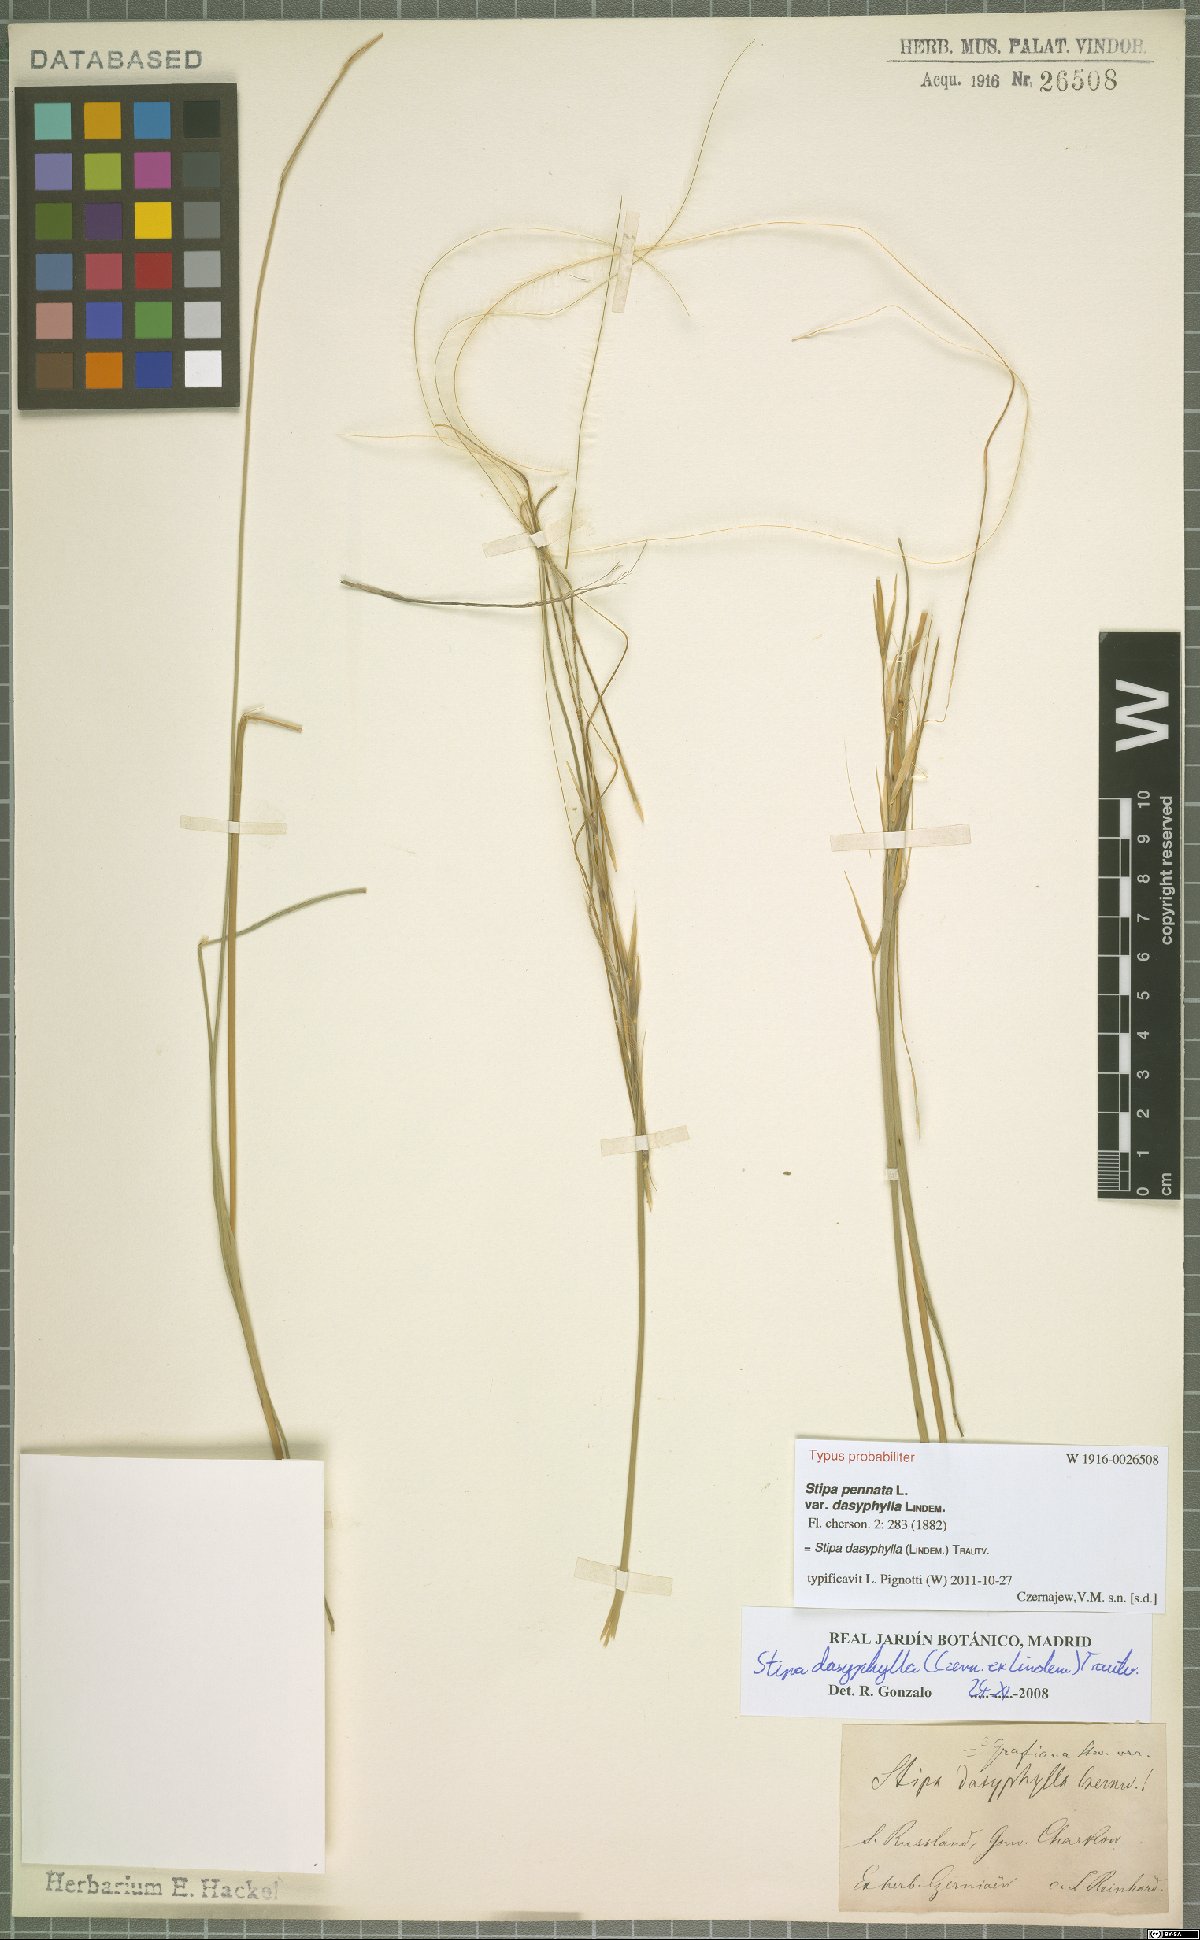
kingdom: Plantae
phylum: Tracheophyta
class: Liliopsida
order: Poales
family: Poaceae
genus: Stipa
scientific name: Stipa dasyphylla
